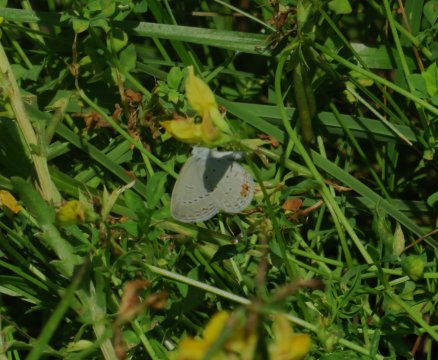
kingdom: Animalia
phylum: Arthropoda
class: Insecta
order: Lepidoptera
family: Lycaenidae
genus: Elkalyce
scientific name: Elkalyce comyntas
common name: Eastern Tailed-Blue
